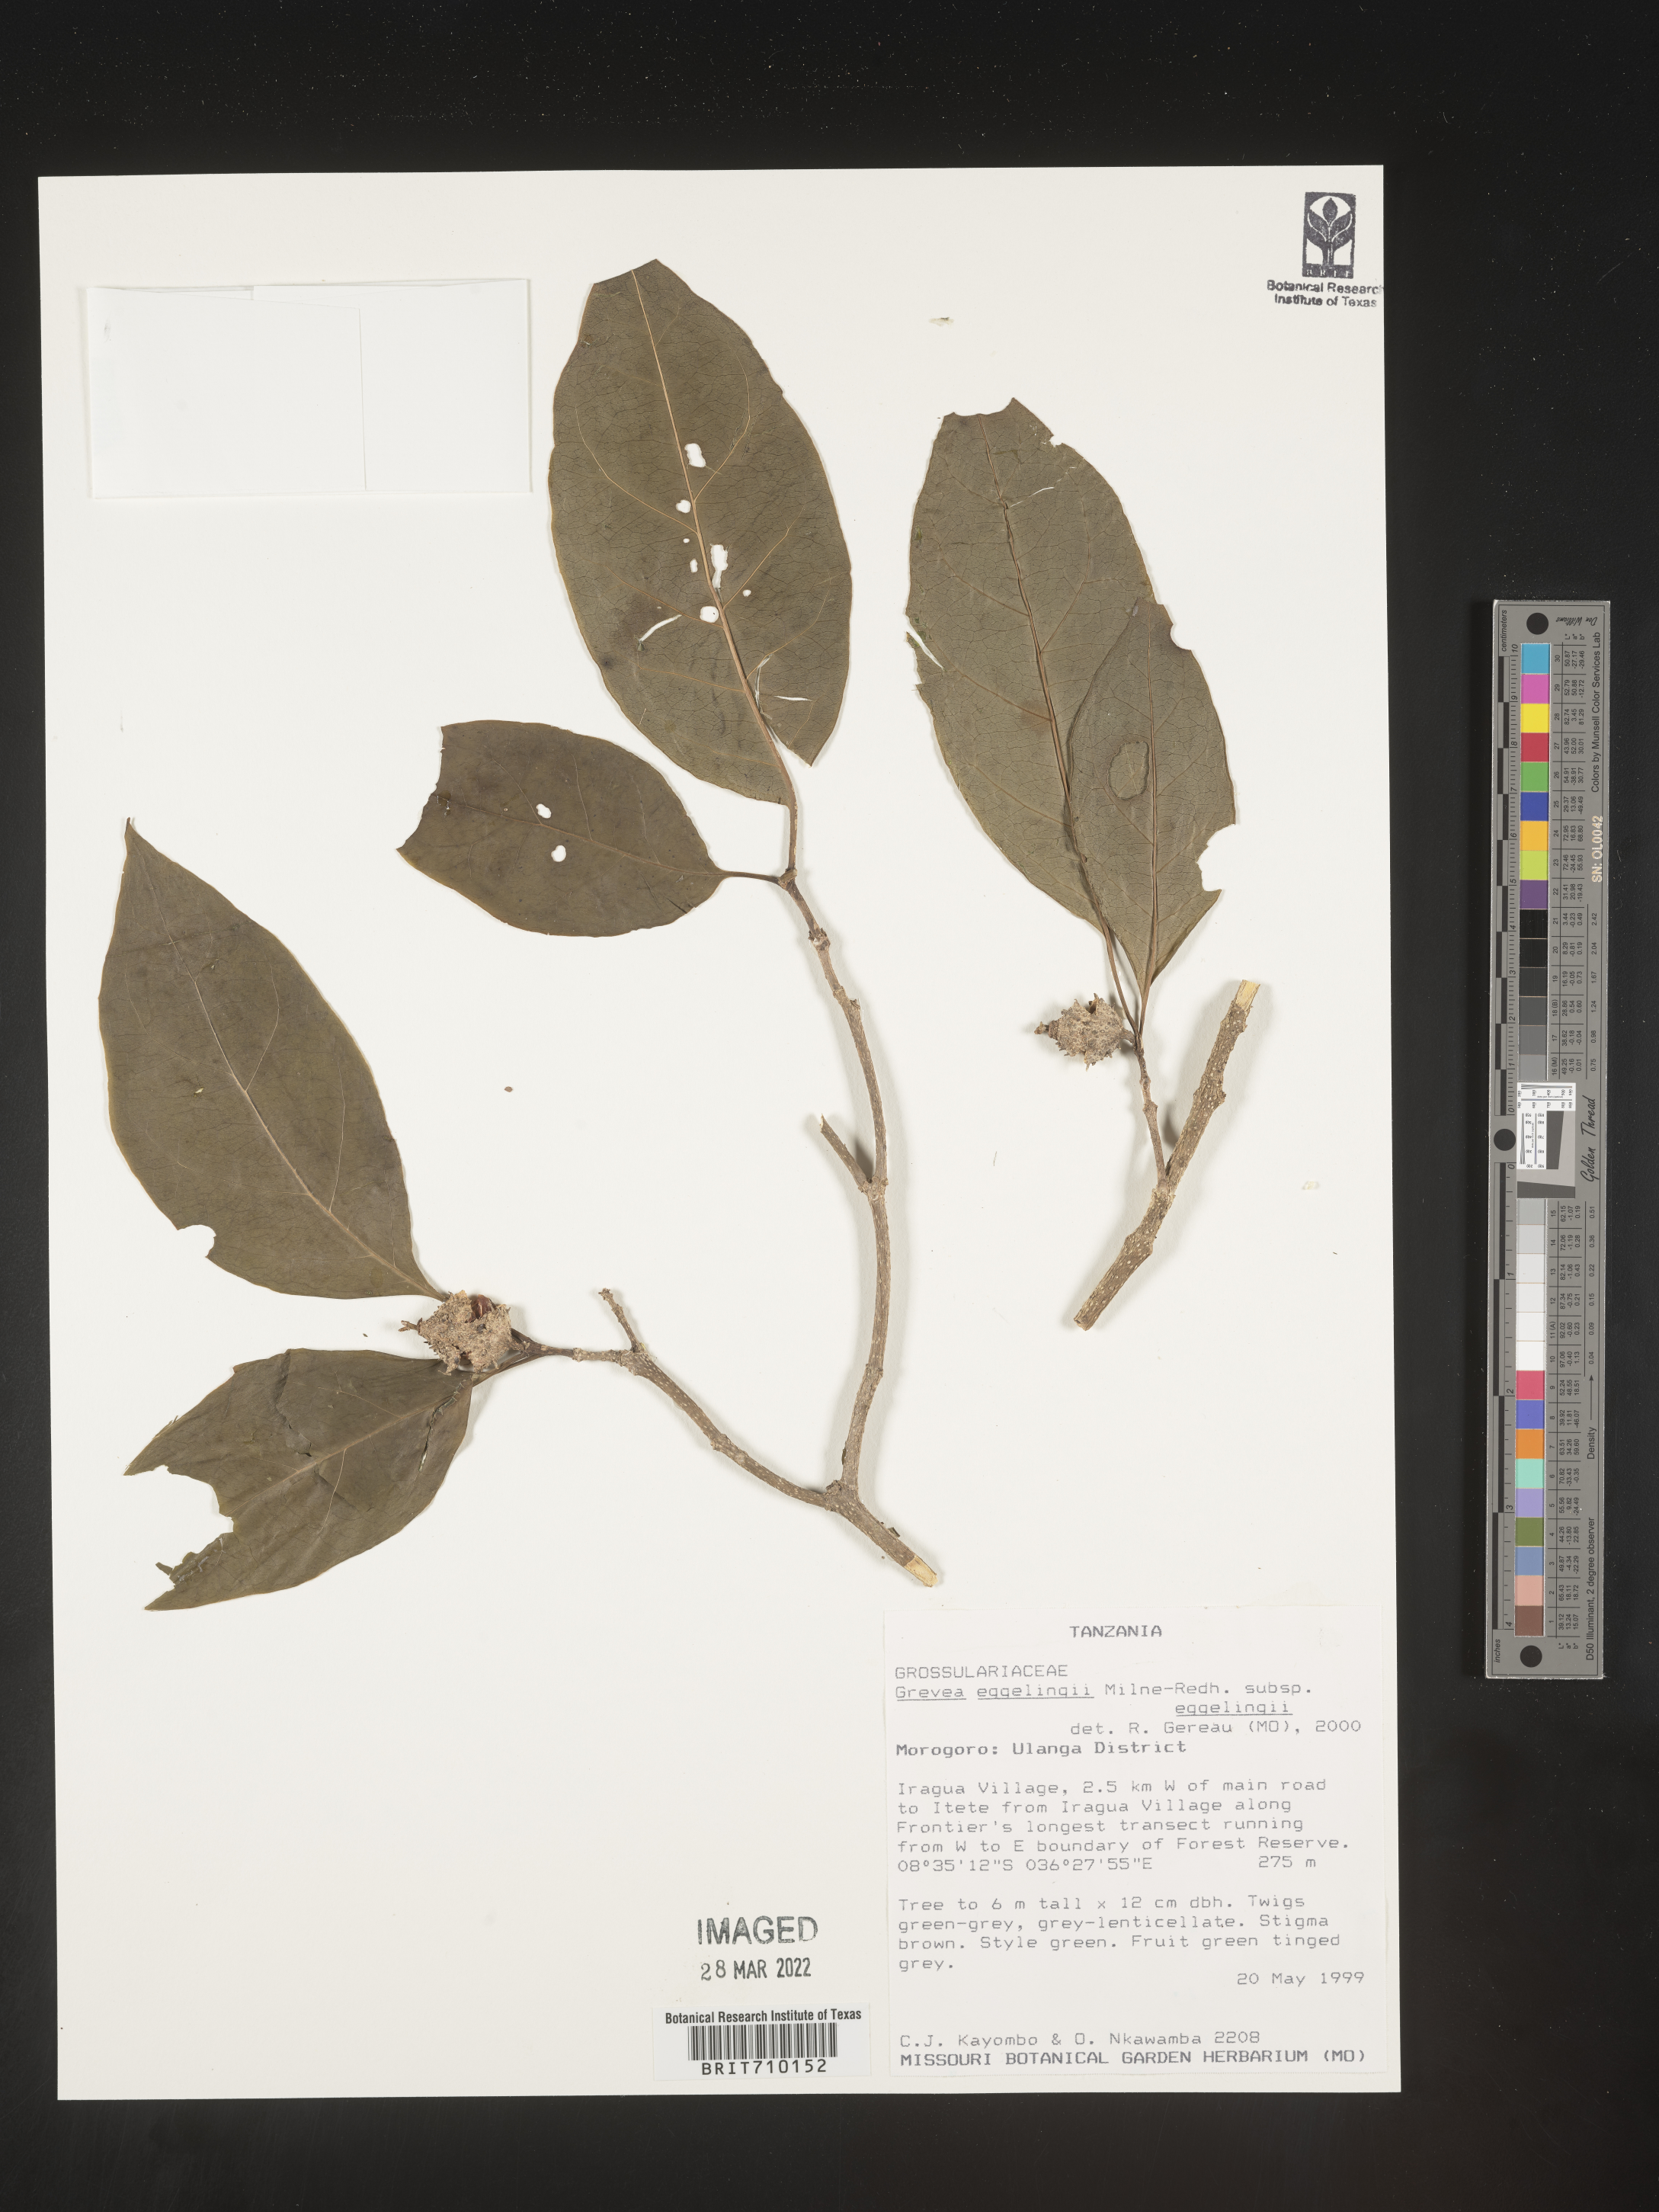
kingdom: Plantae
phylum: Tracheophyta
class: Magnoliopsida
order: Solanales
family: Montiniaceae
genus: Grevea
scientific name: Grevea
